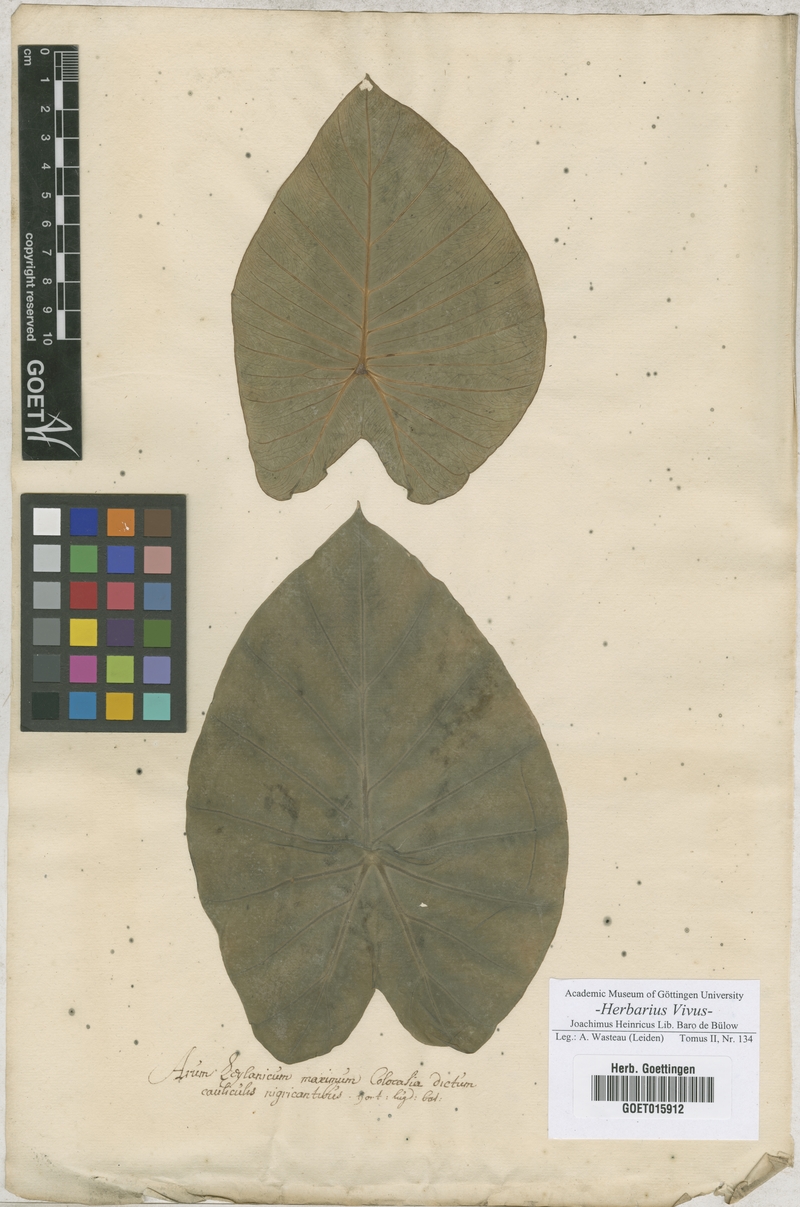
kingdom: Plantae
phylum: Tracheophyta
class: Liliopsida
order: Alismatales
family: Araceae
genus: Arum
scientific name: Arum
